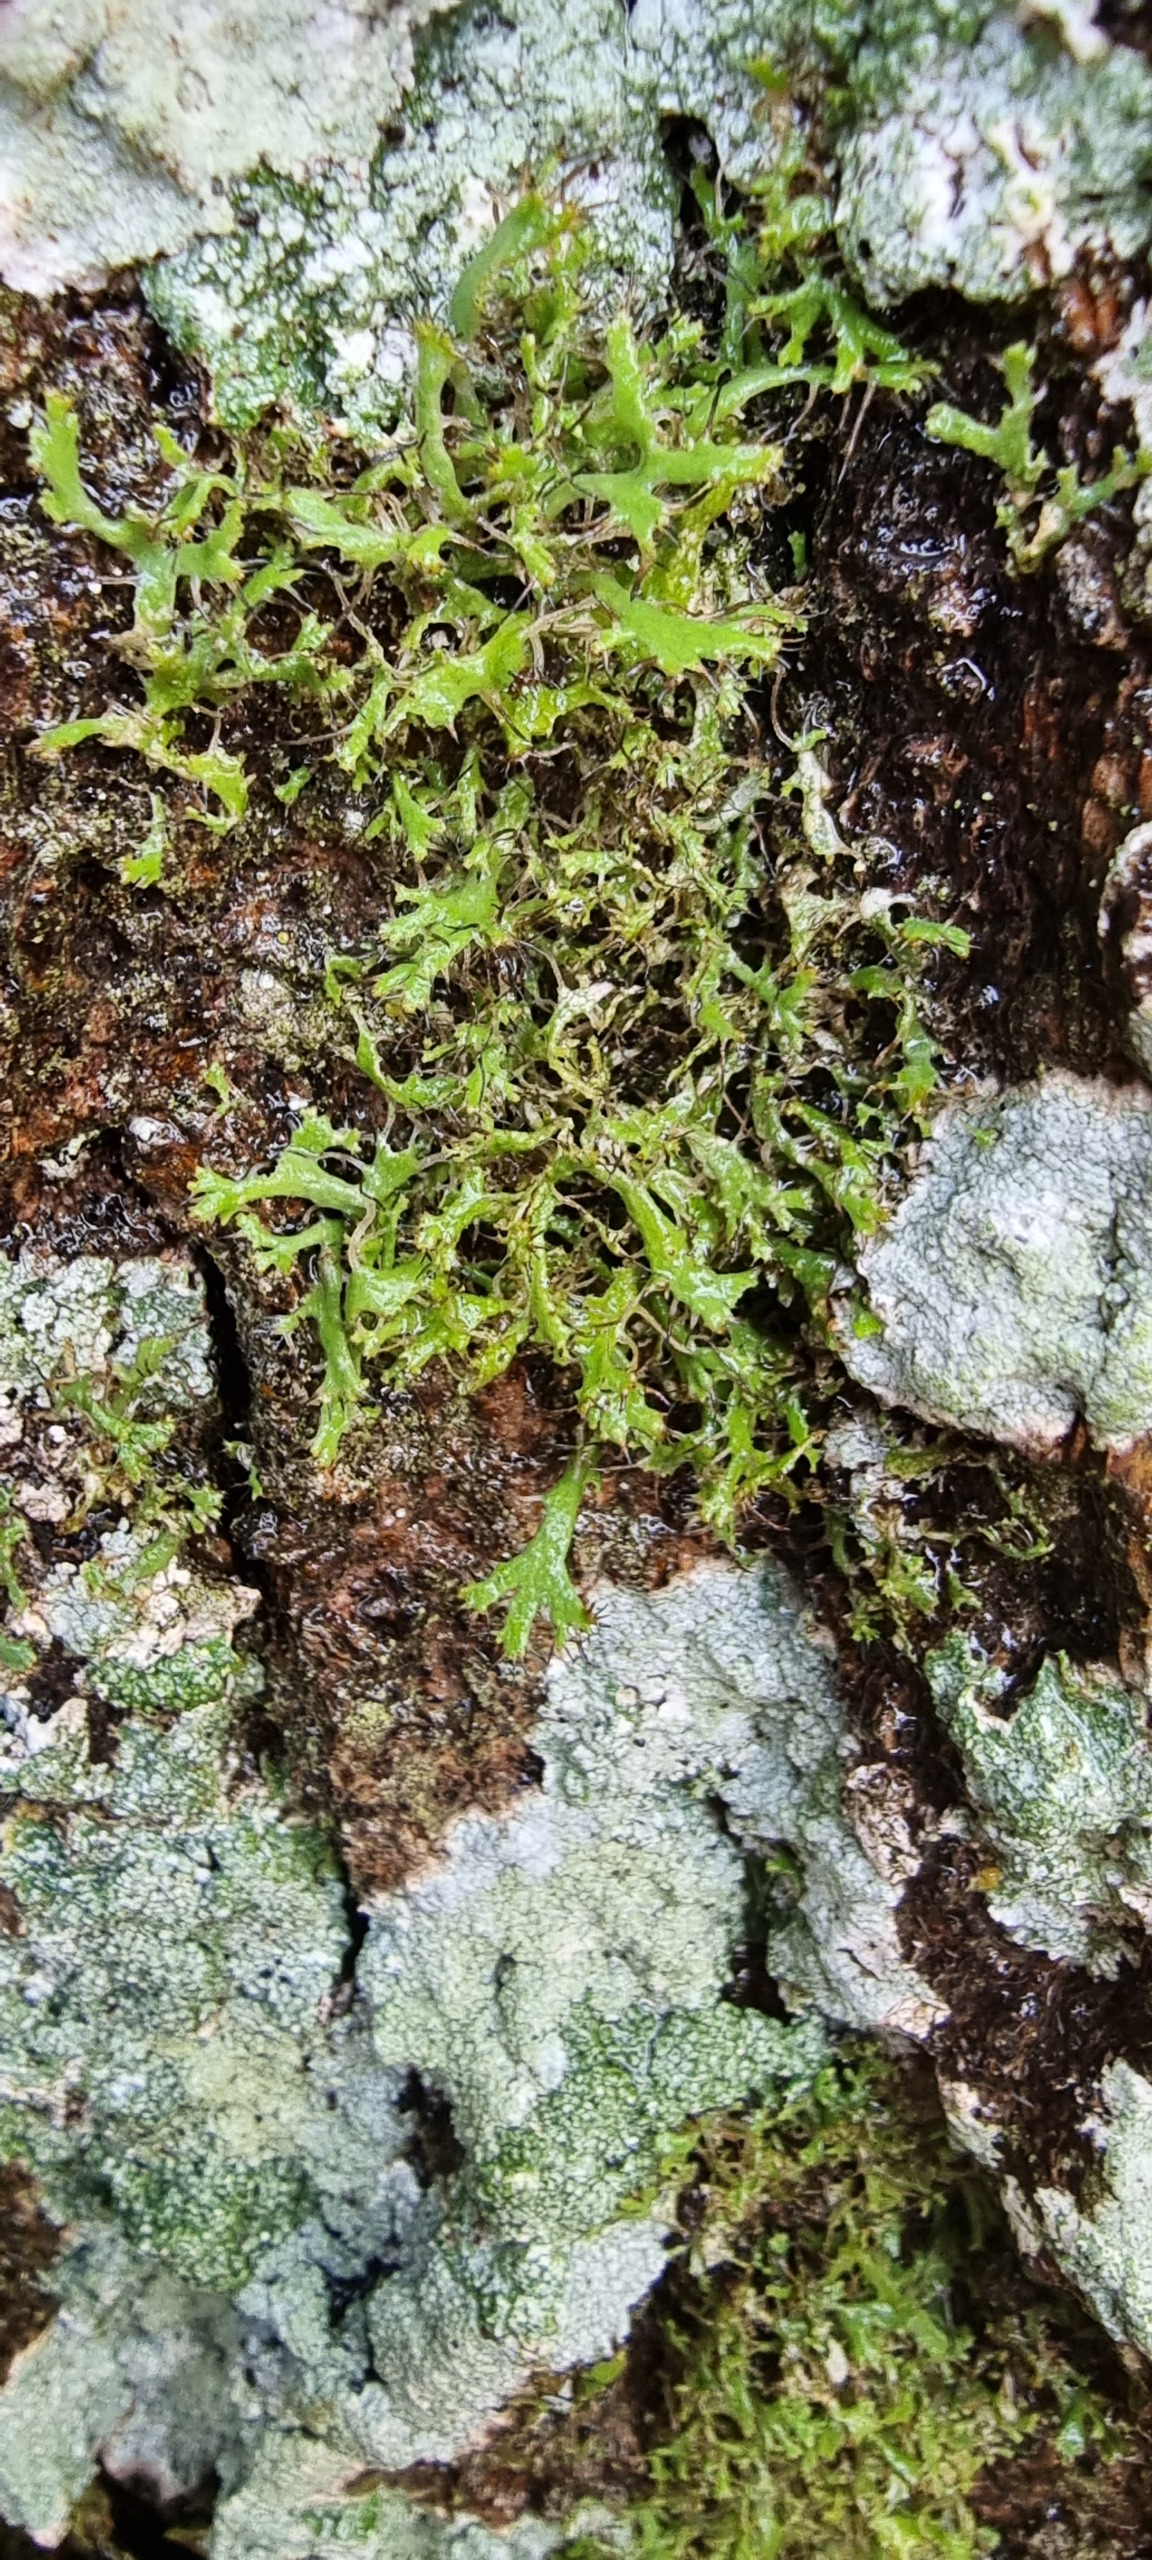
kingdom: Fungi
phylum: Ascomycota
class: Lecanoromycetes
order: Caliciales
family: Physciaceae
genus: Anaptychia
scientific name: Anaptychia ciliaris
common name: Allé-frynselav
